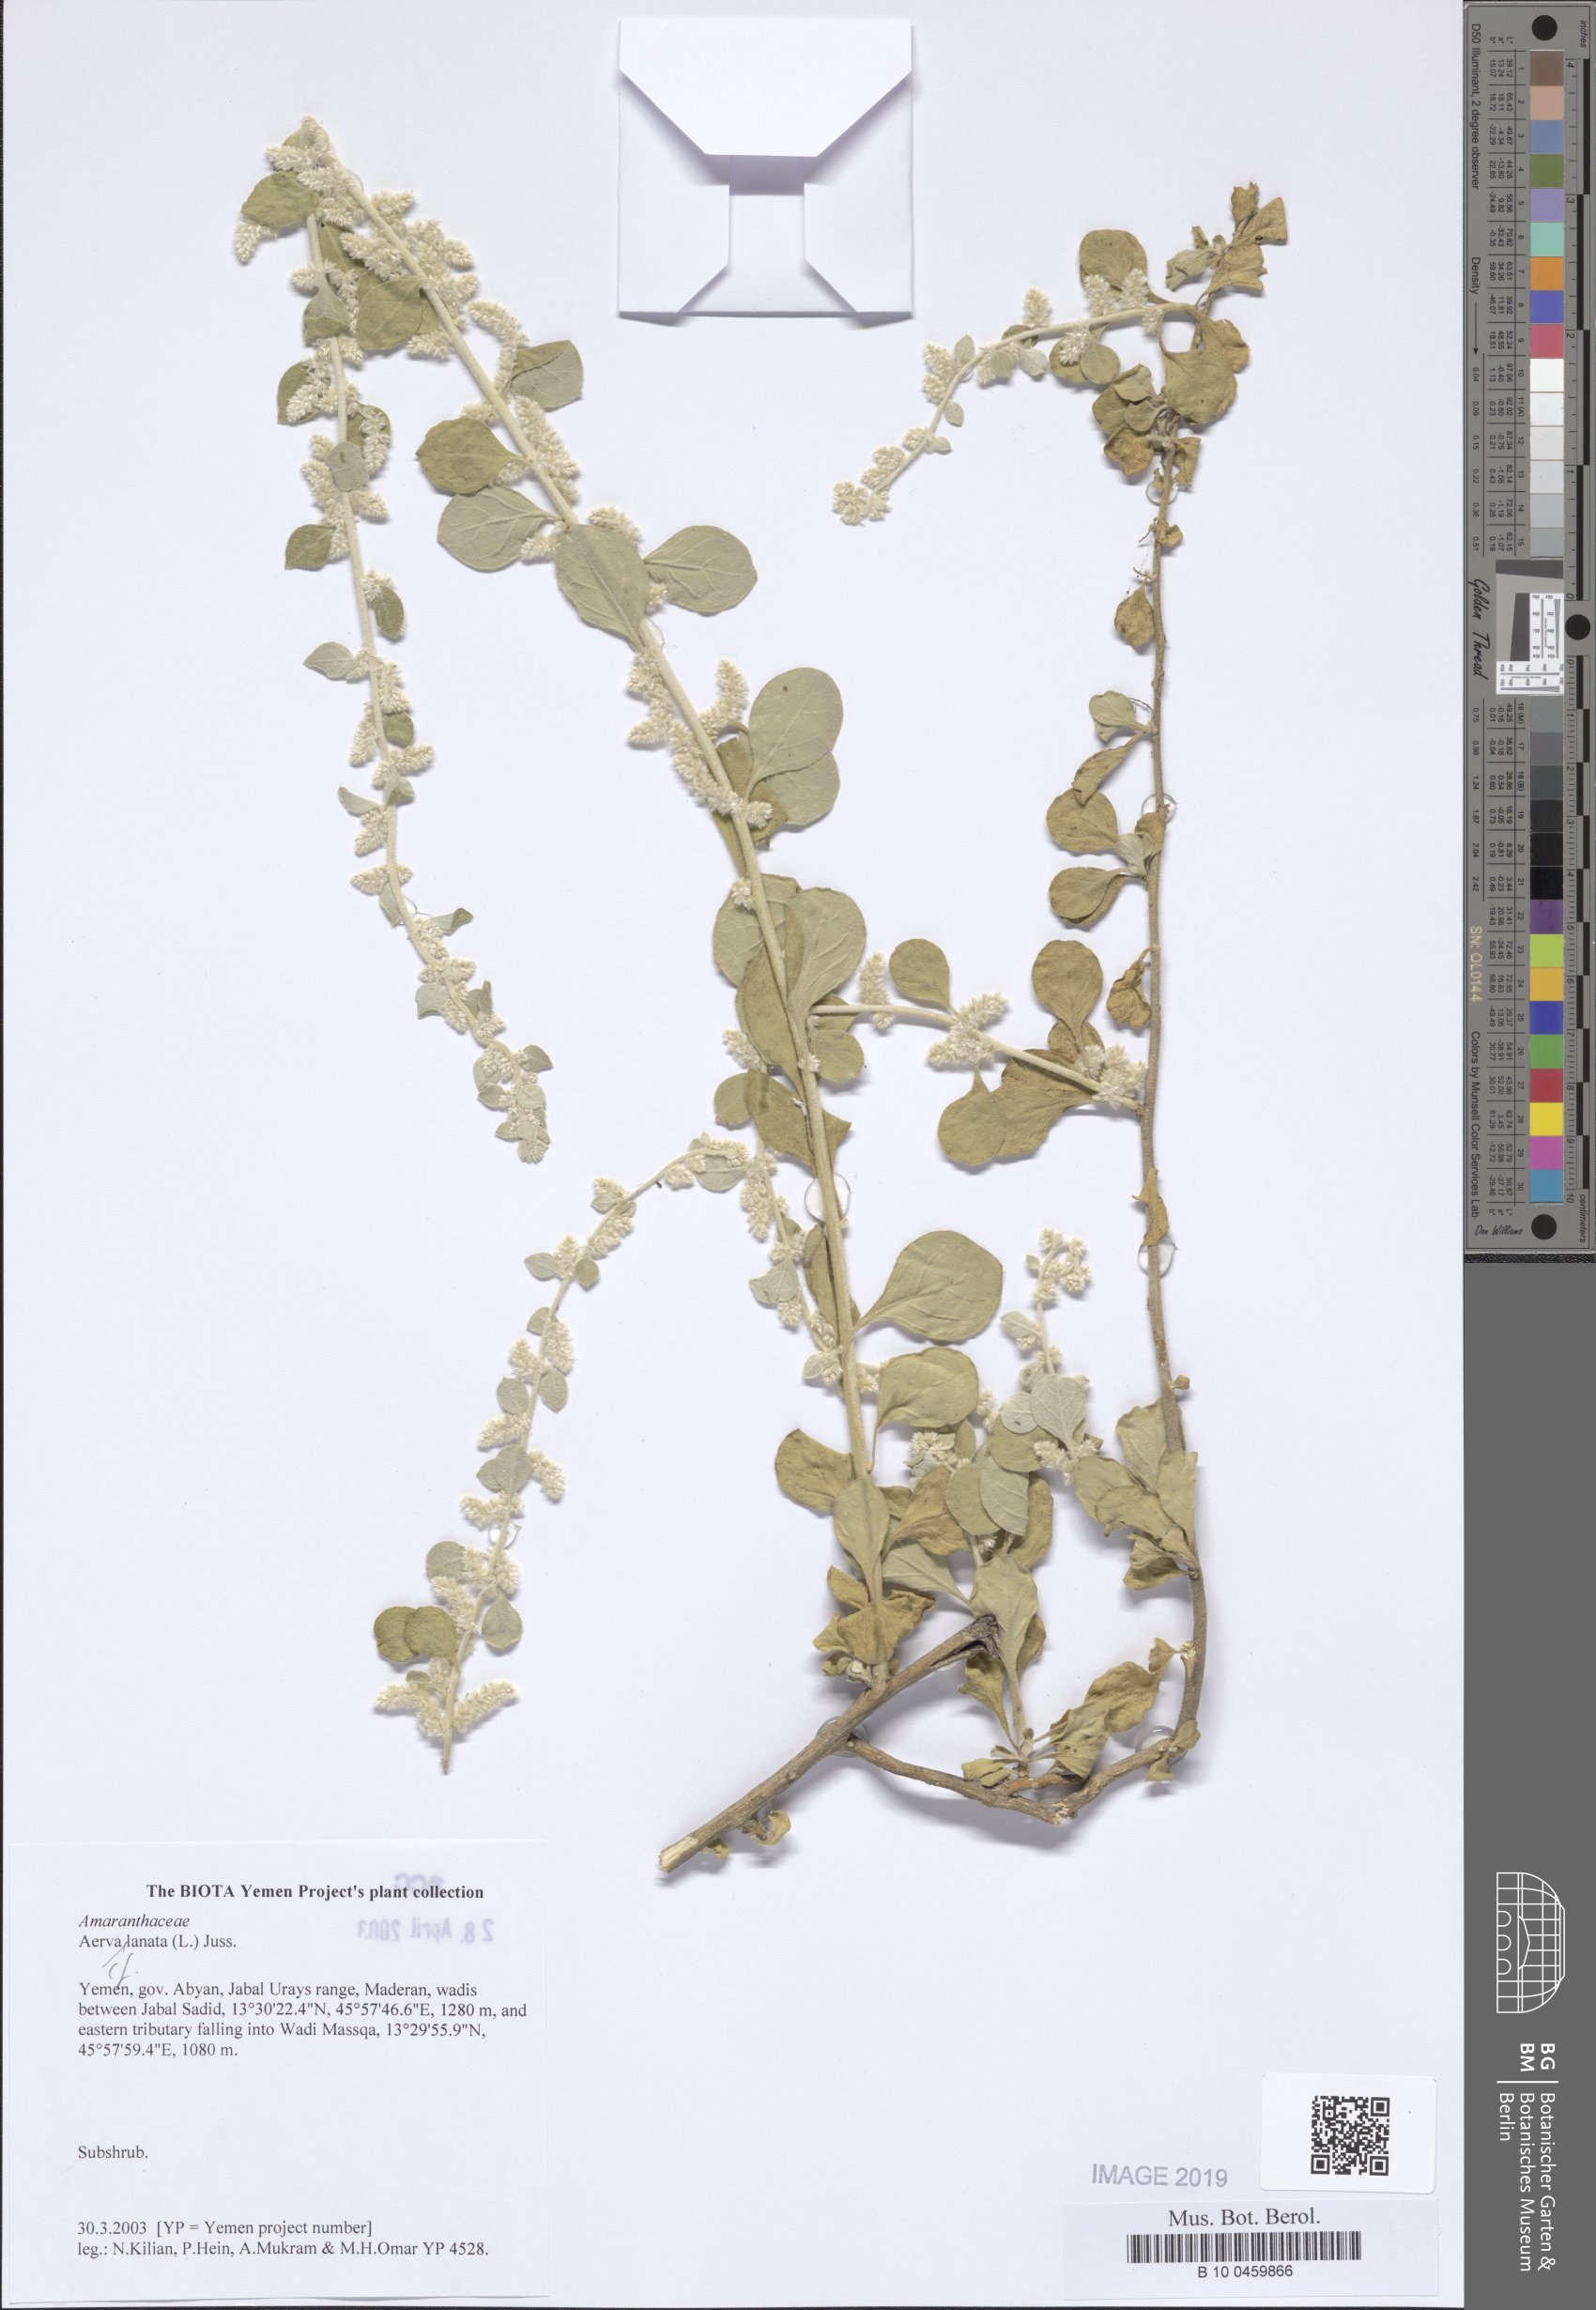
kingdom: Plantae
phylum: Tracheophyta
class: Magnoliopsida
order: Caryophyllales
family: Amaranthaceae
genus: Ouret
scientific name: Ouret lanata
